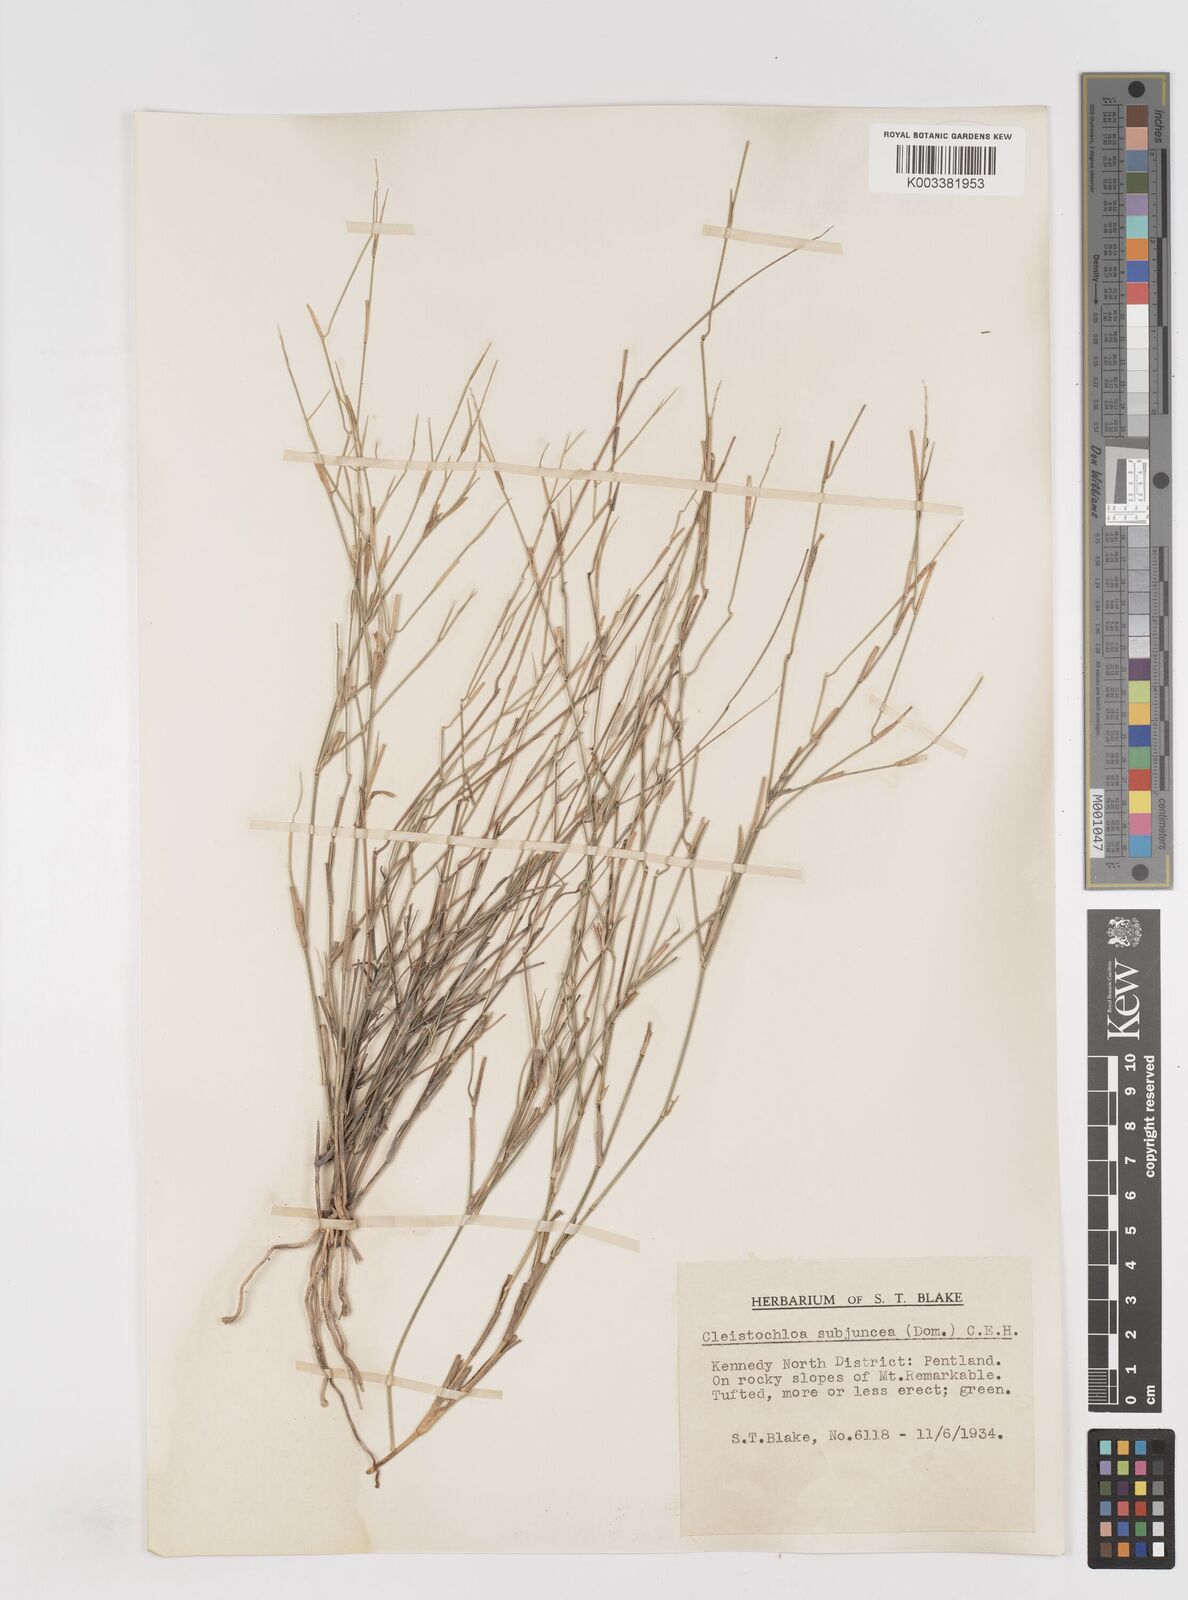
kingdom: Plantae
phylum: Tracheophyta
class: Liliopsida
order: Poales
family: Poaceae
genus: Cleistochloa
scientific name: Cleistochloa subjuncea
